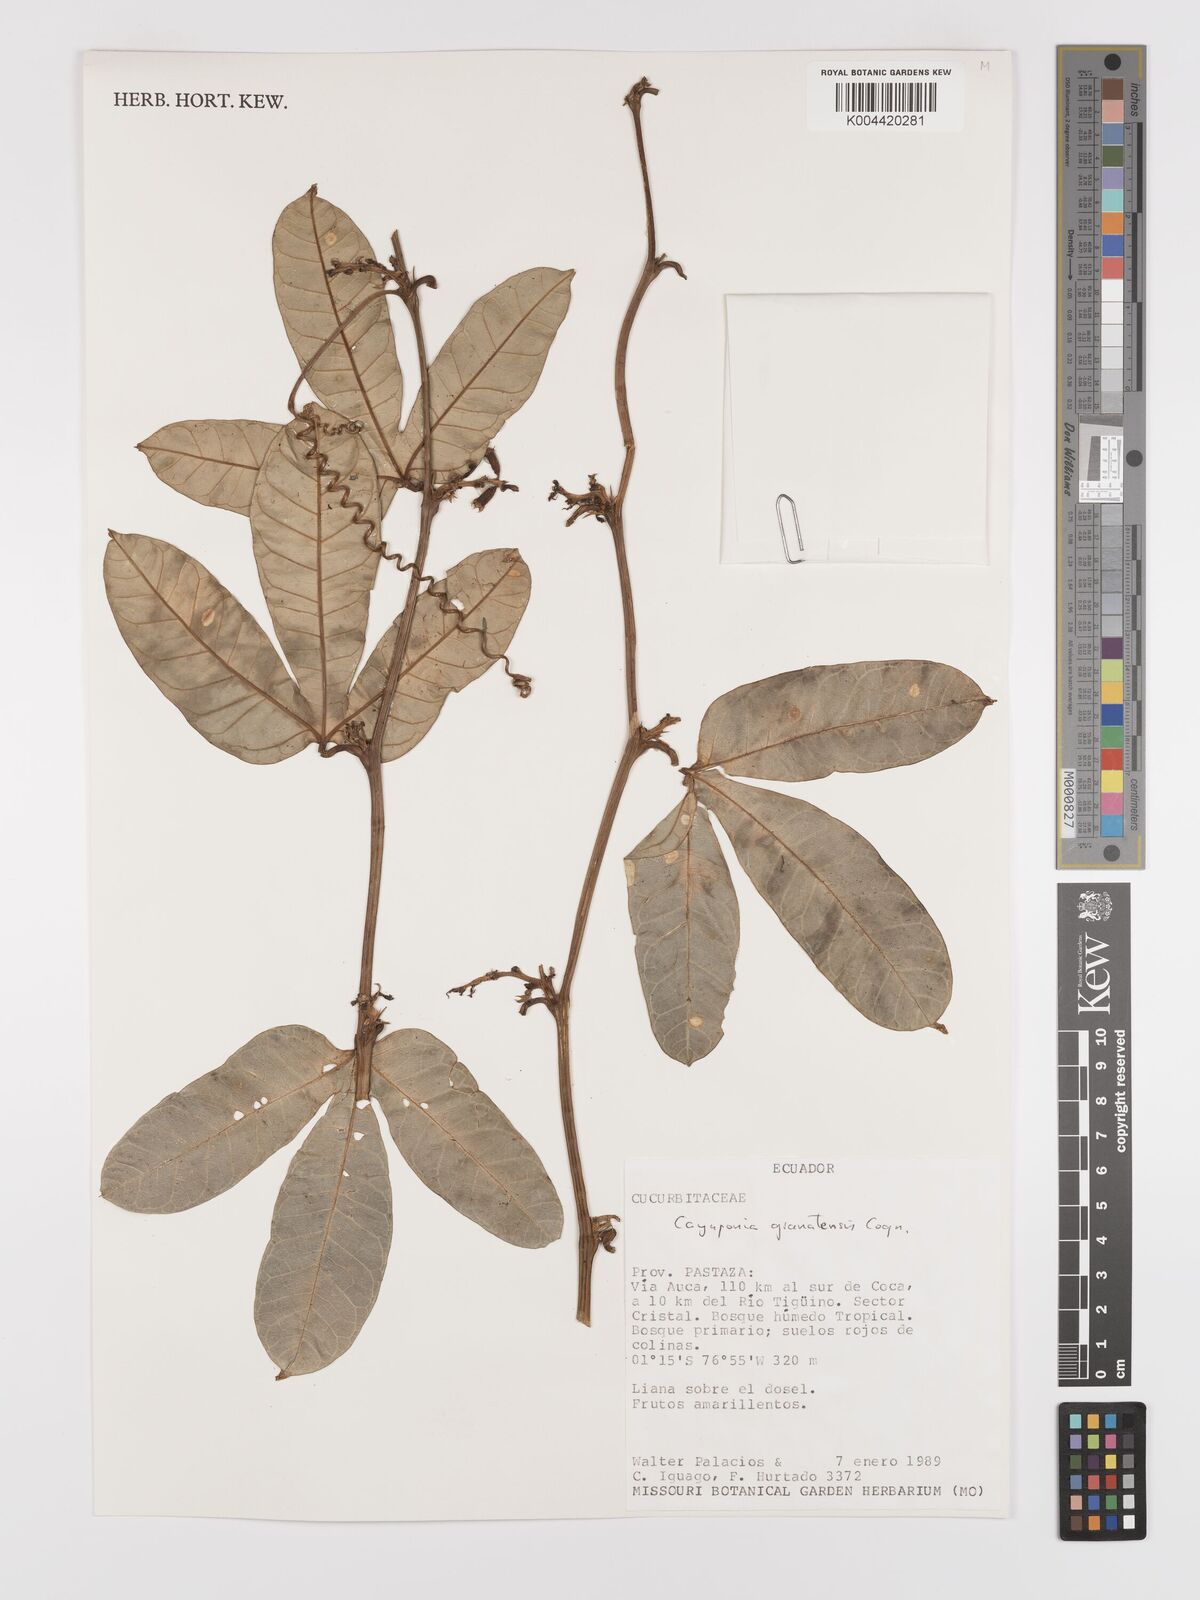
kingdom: Plantae
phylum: Tracheophyta
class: Magnoliopsida
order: Cucurbitales
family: Cucurbitaceae
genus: Cayaponia
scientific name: Cayaponia granatensis
